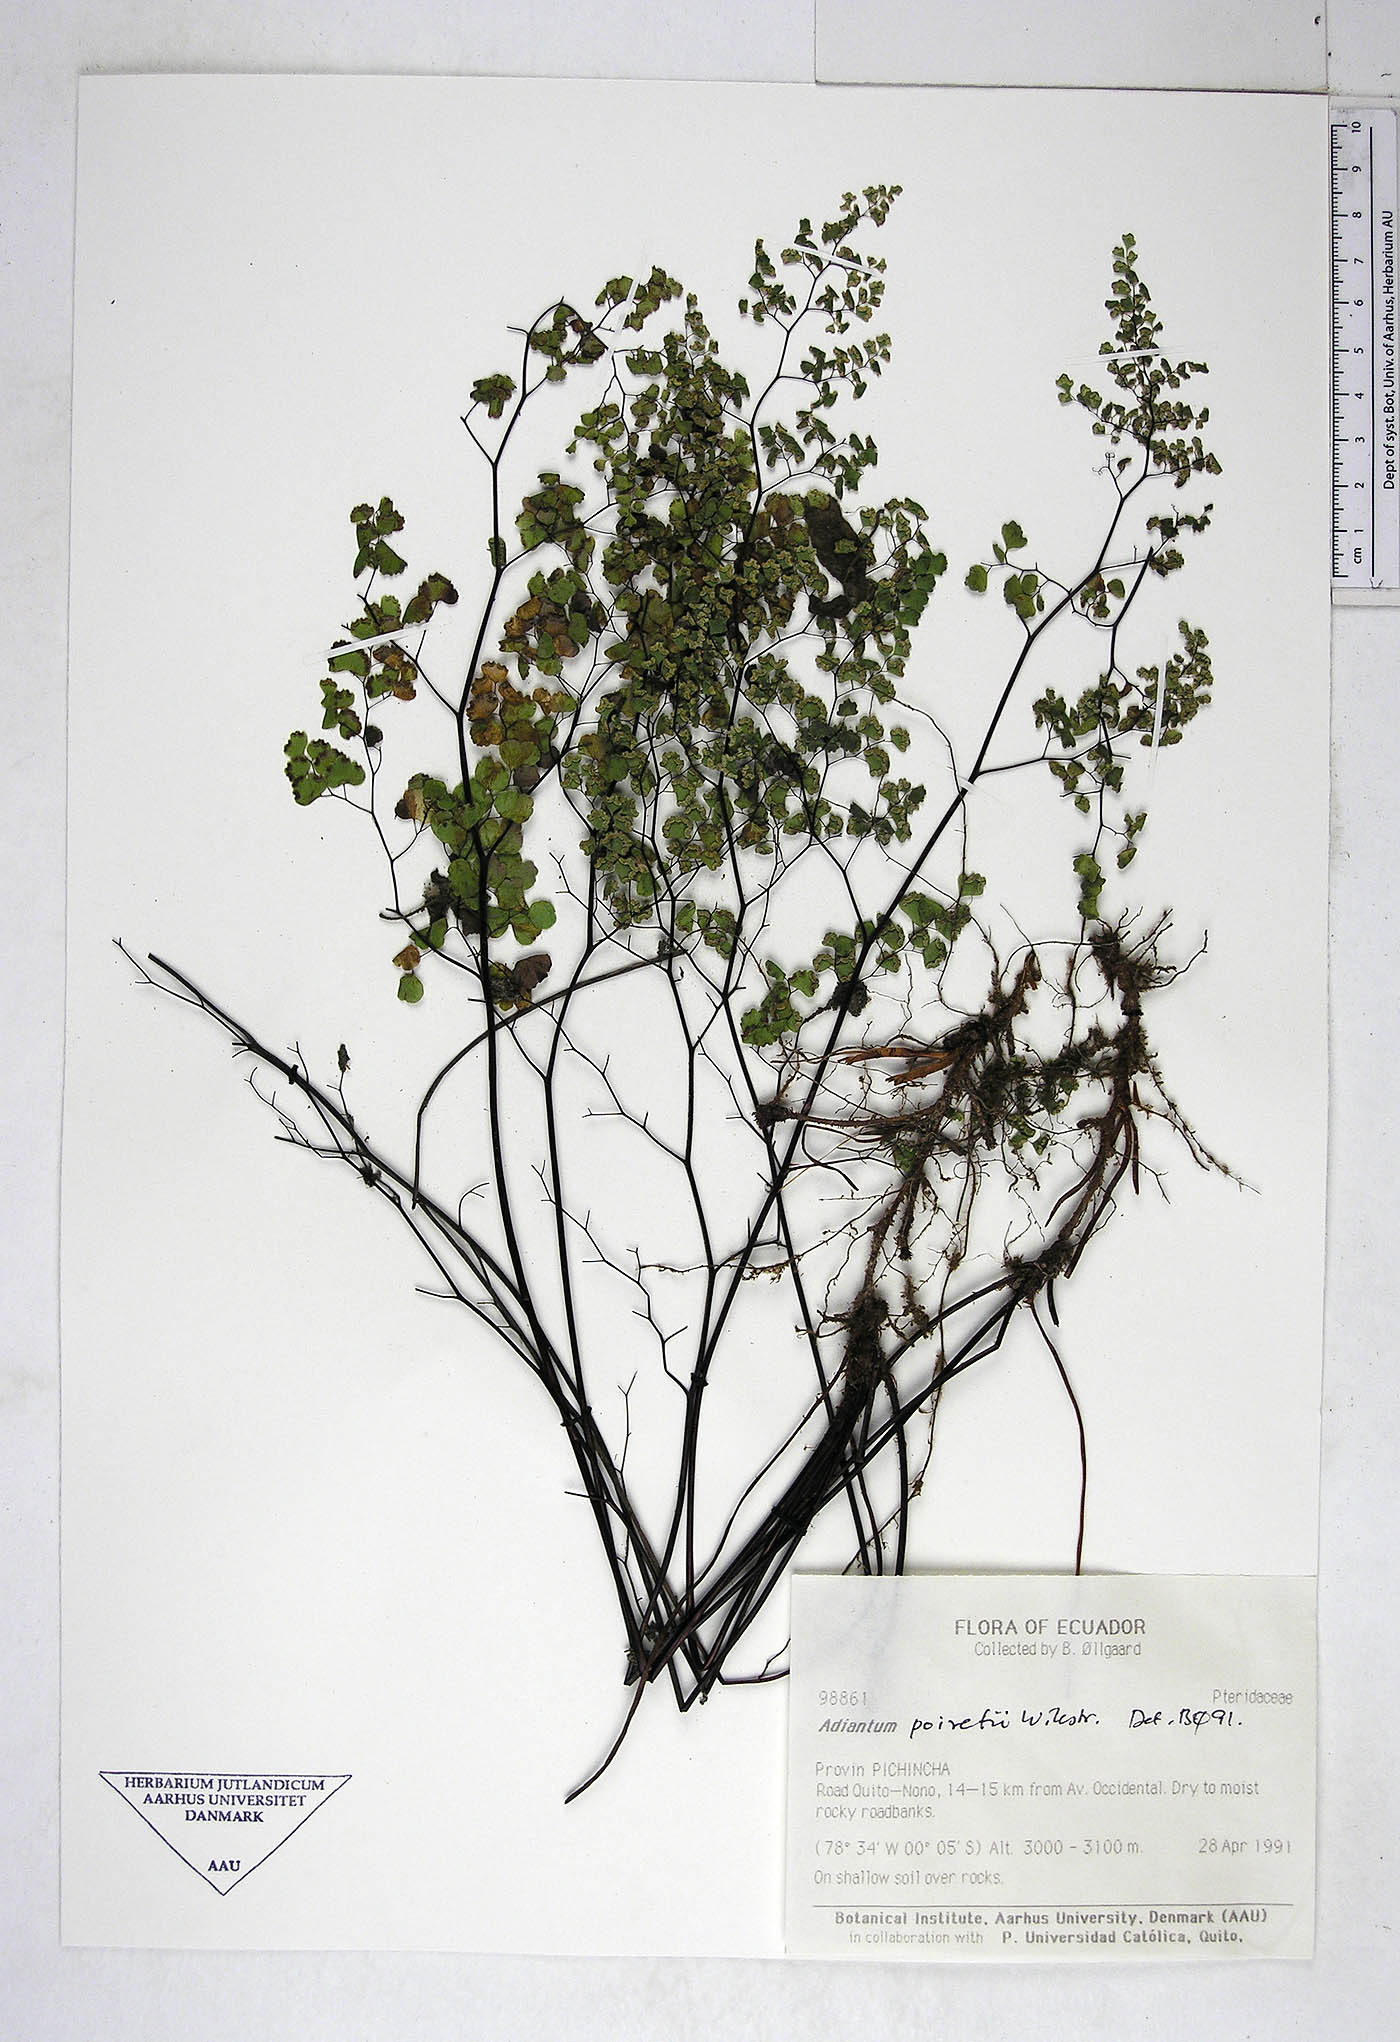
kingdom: Plantae
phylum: Tracheophyta
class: Polypodiopsida
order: Polypodiales
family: Pteridaceae
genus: Adiantum
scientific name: Adiantum poiretii
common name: Mexican maidenhair
